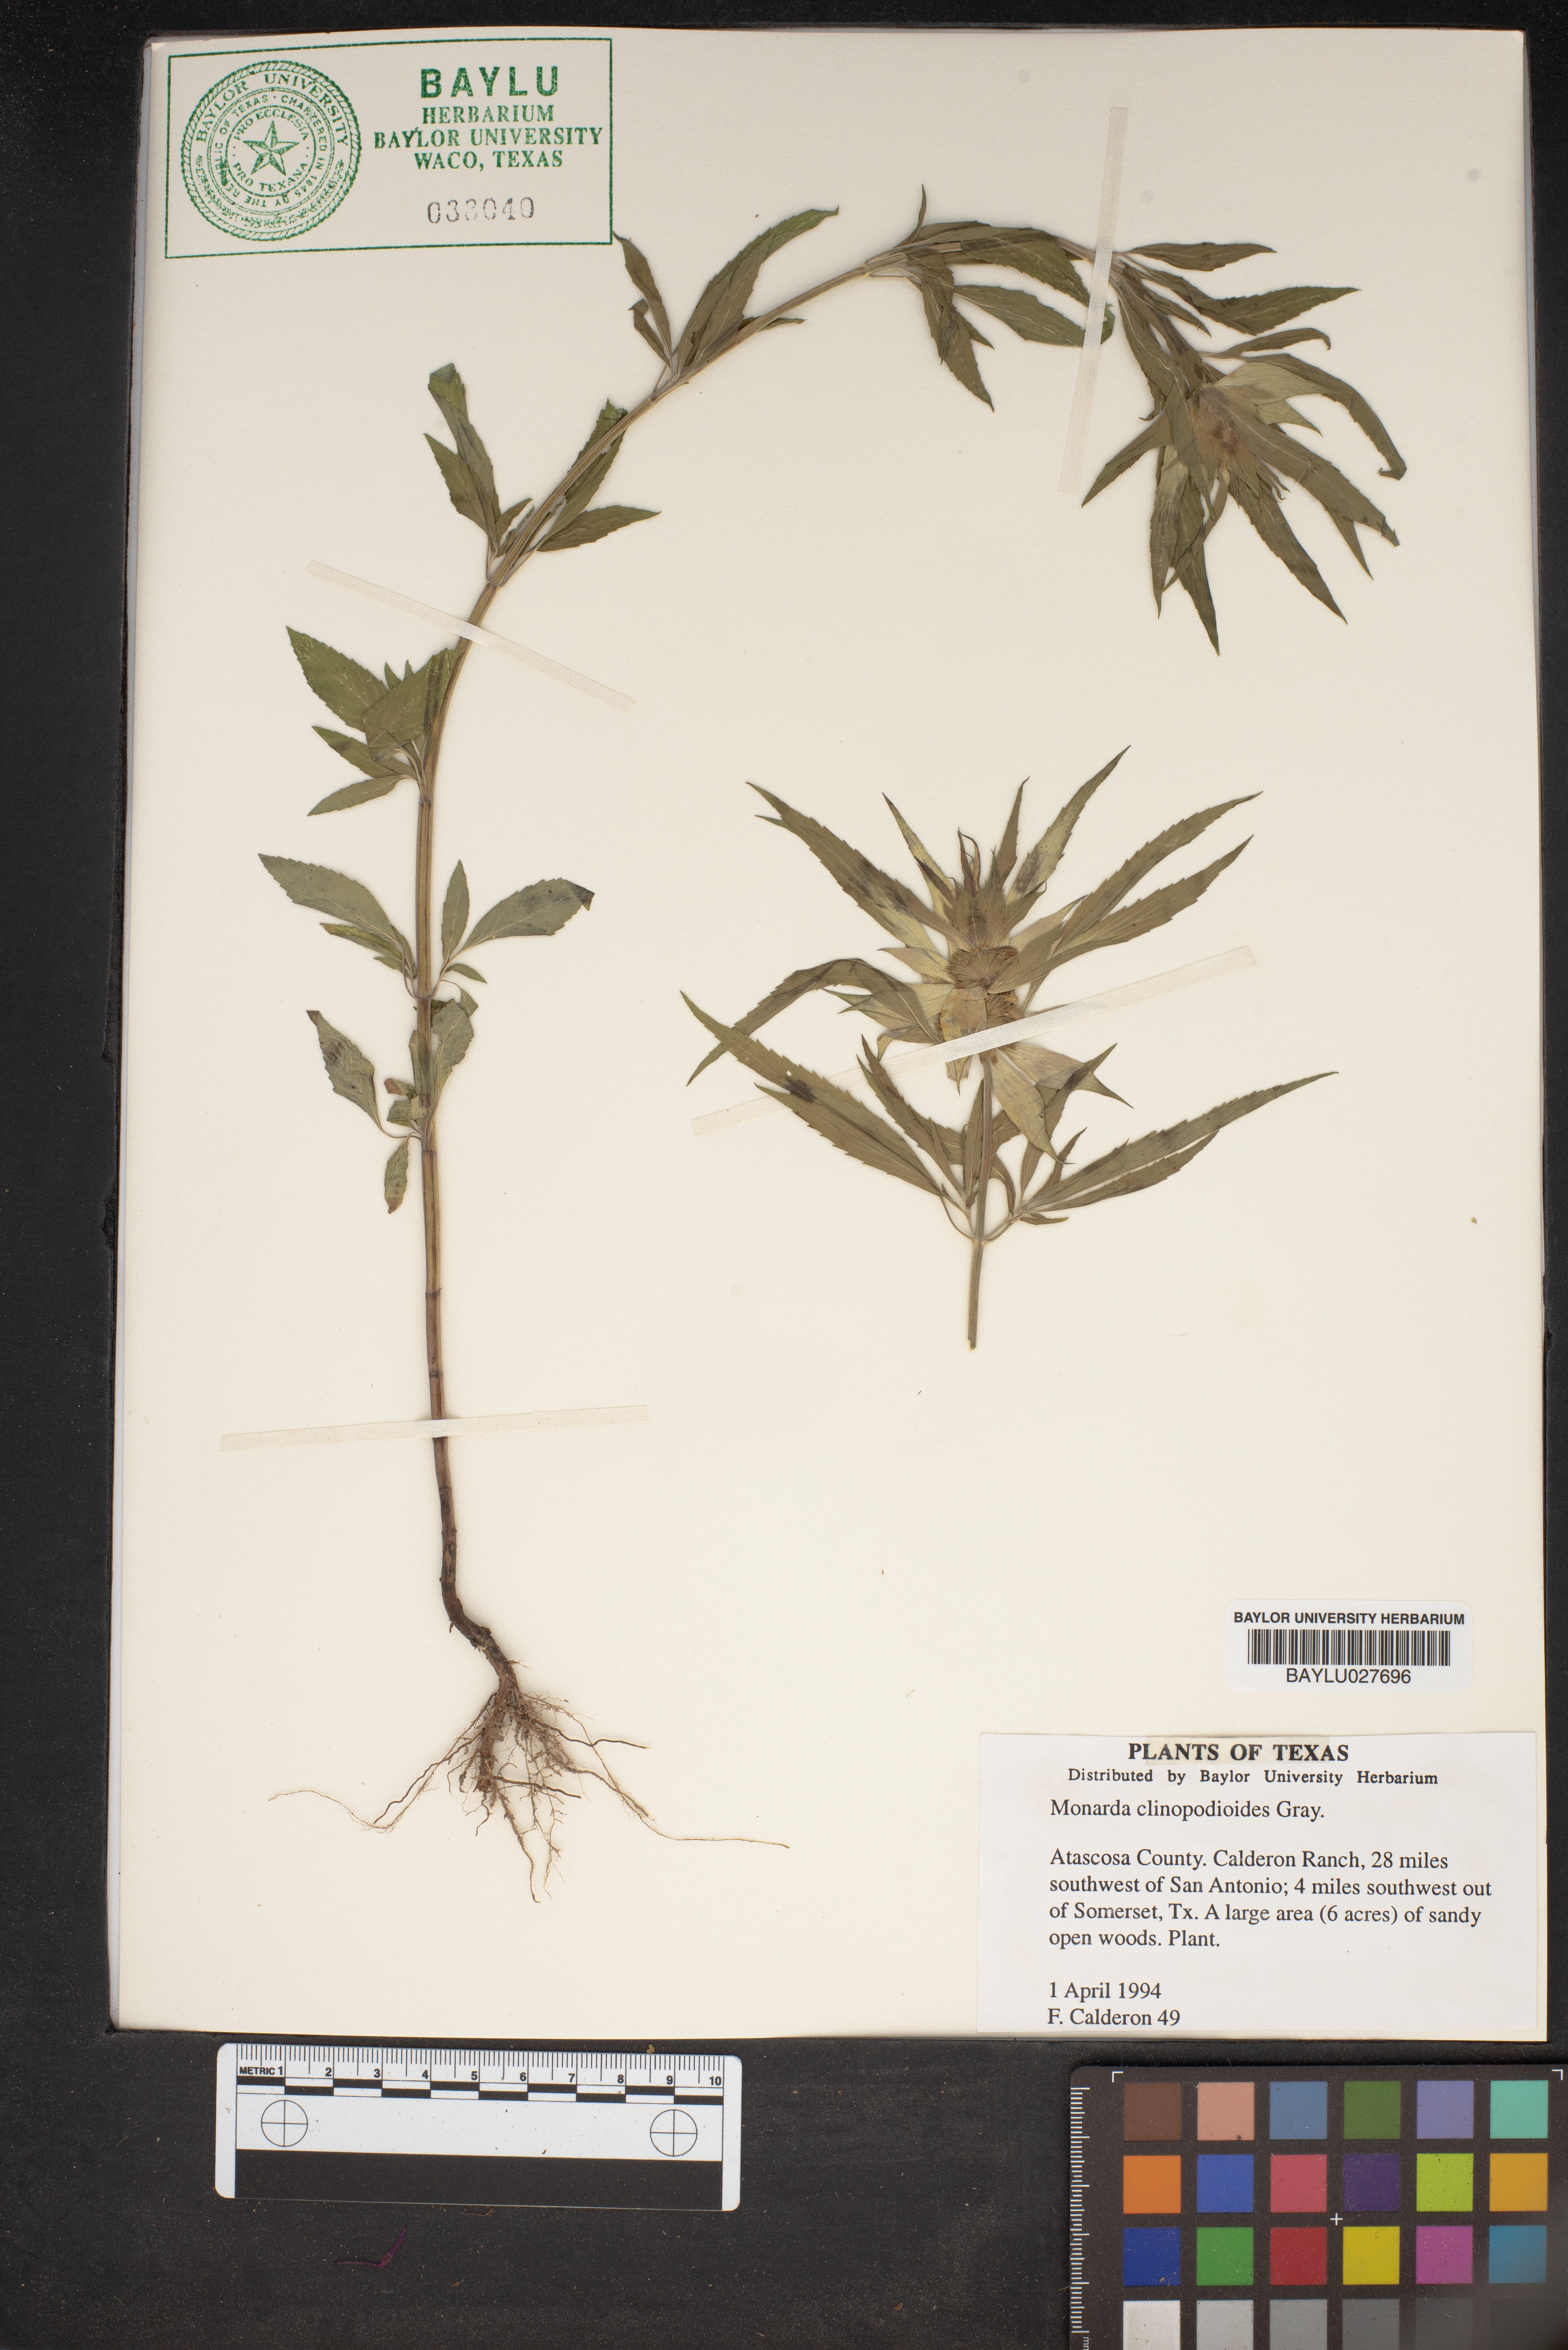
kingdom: Plantae
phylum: Tracheophyta
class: Magnoliopsida
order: Lamiales
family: Lamiaceae
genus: Monarda
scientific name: Monarda clinopodioides
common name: Basil beebalm
